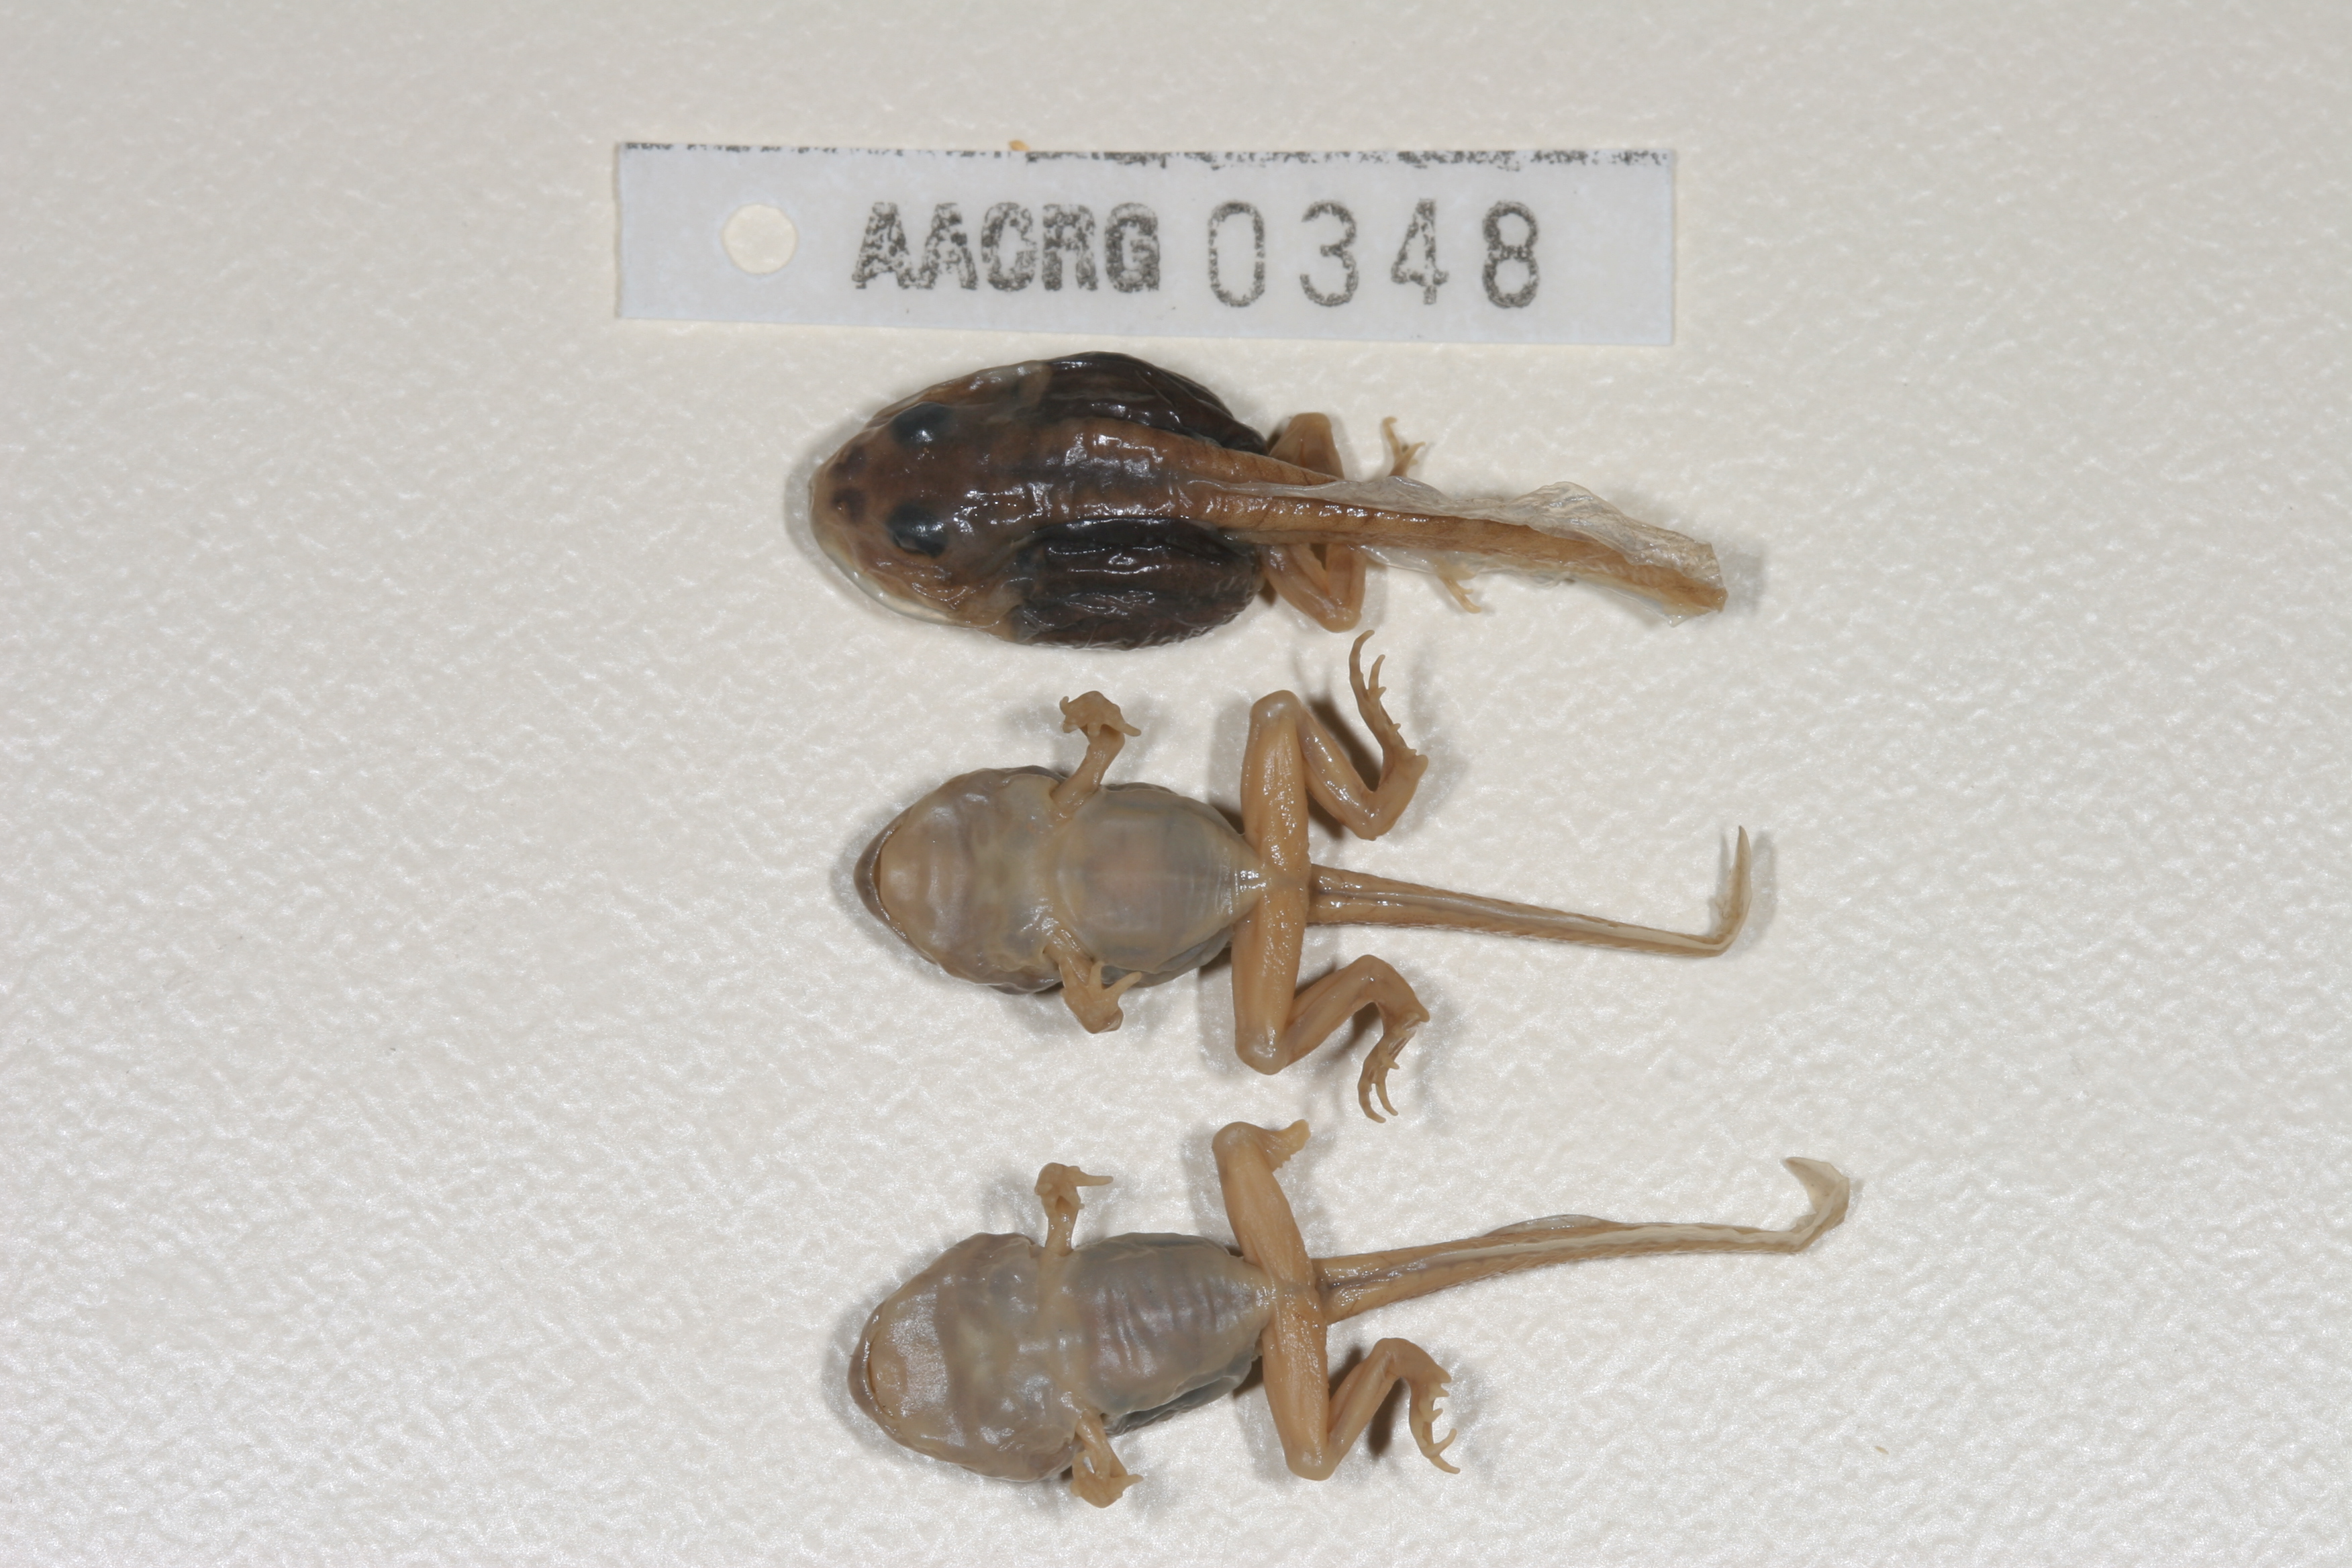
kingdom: Animalia
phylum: Chordata
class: Amphibia
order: Anura
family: Pyxicephalidae
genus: Tomopterna
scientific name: Tomopterna cryptotis
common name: Catequero bullfrog
